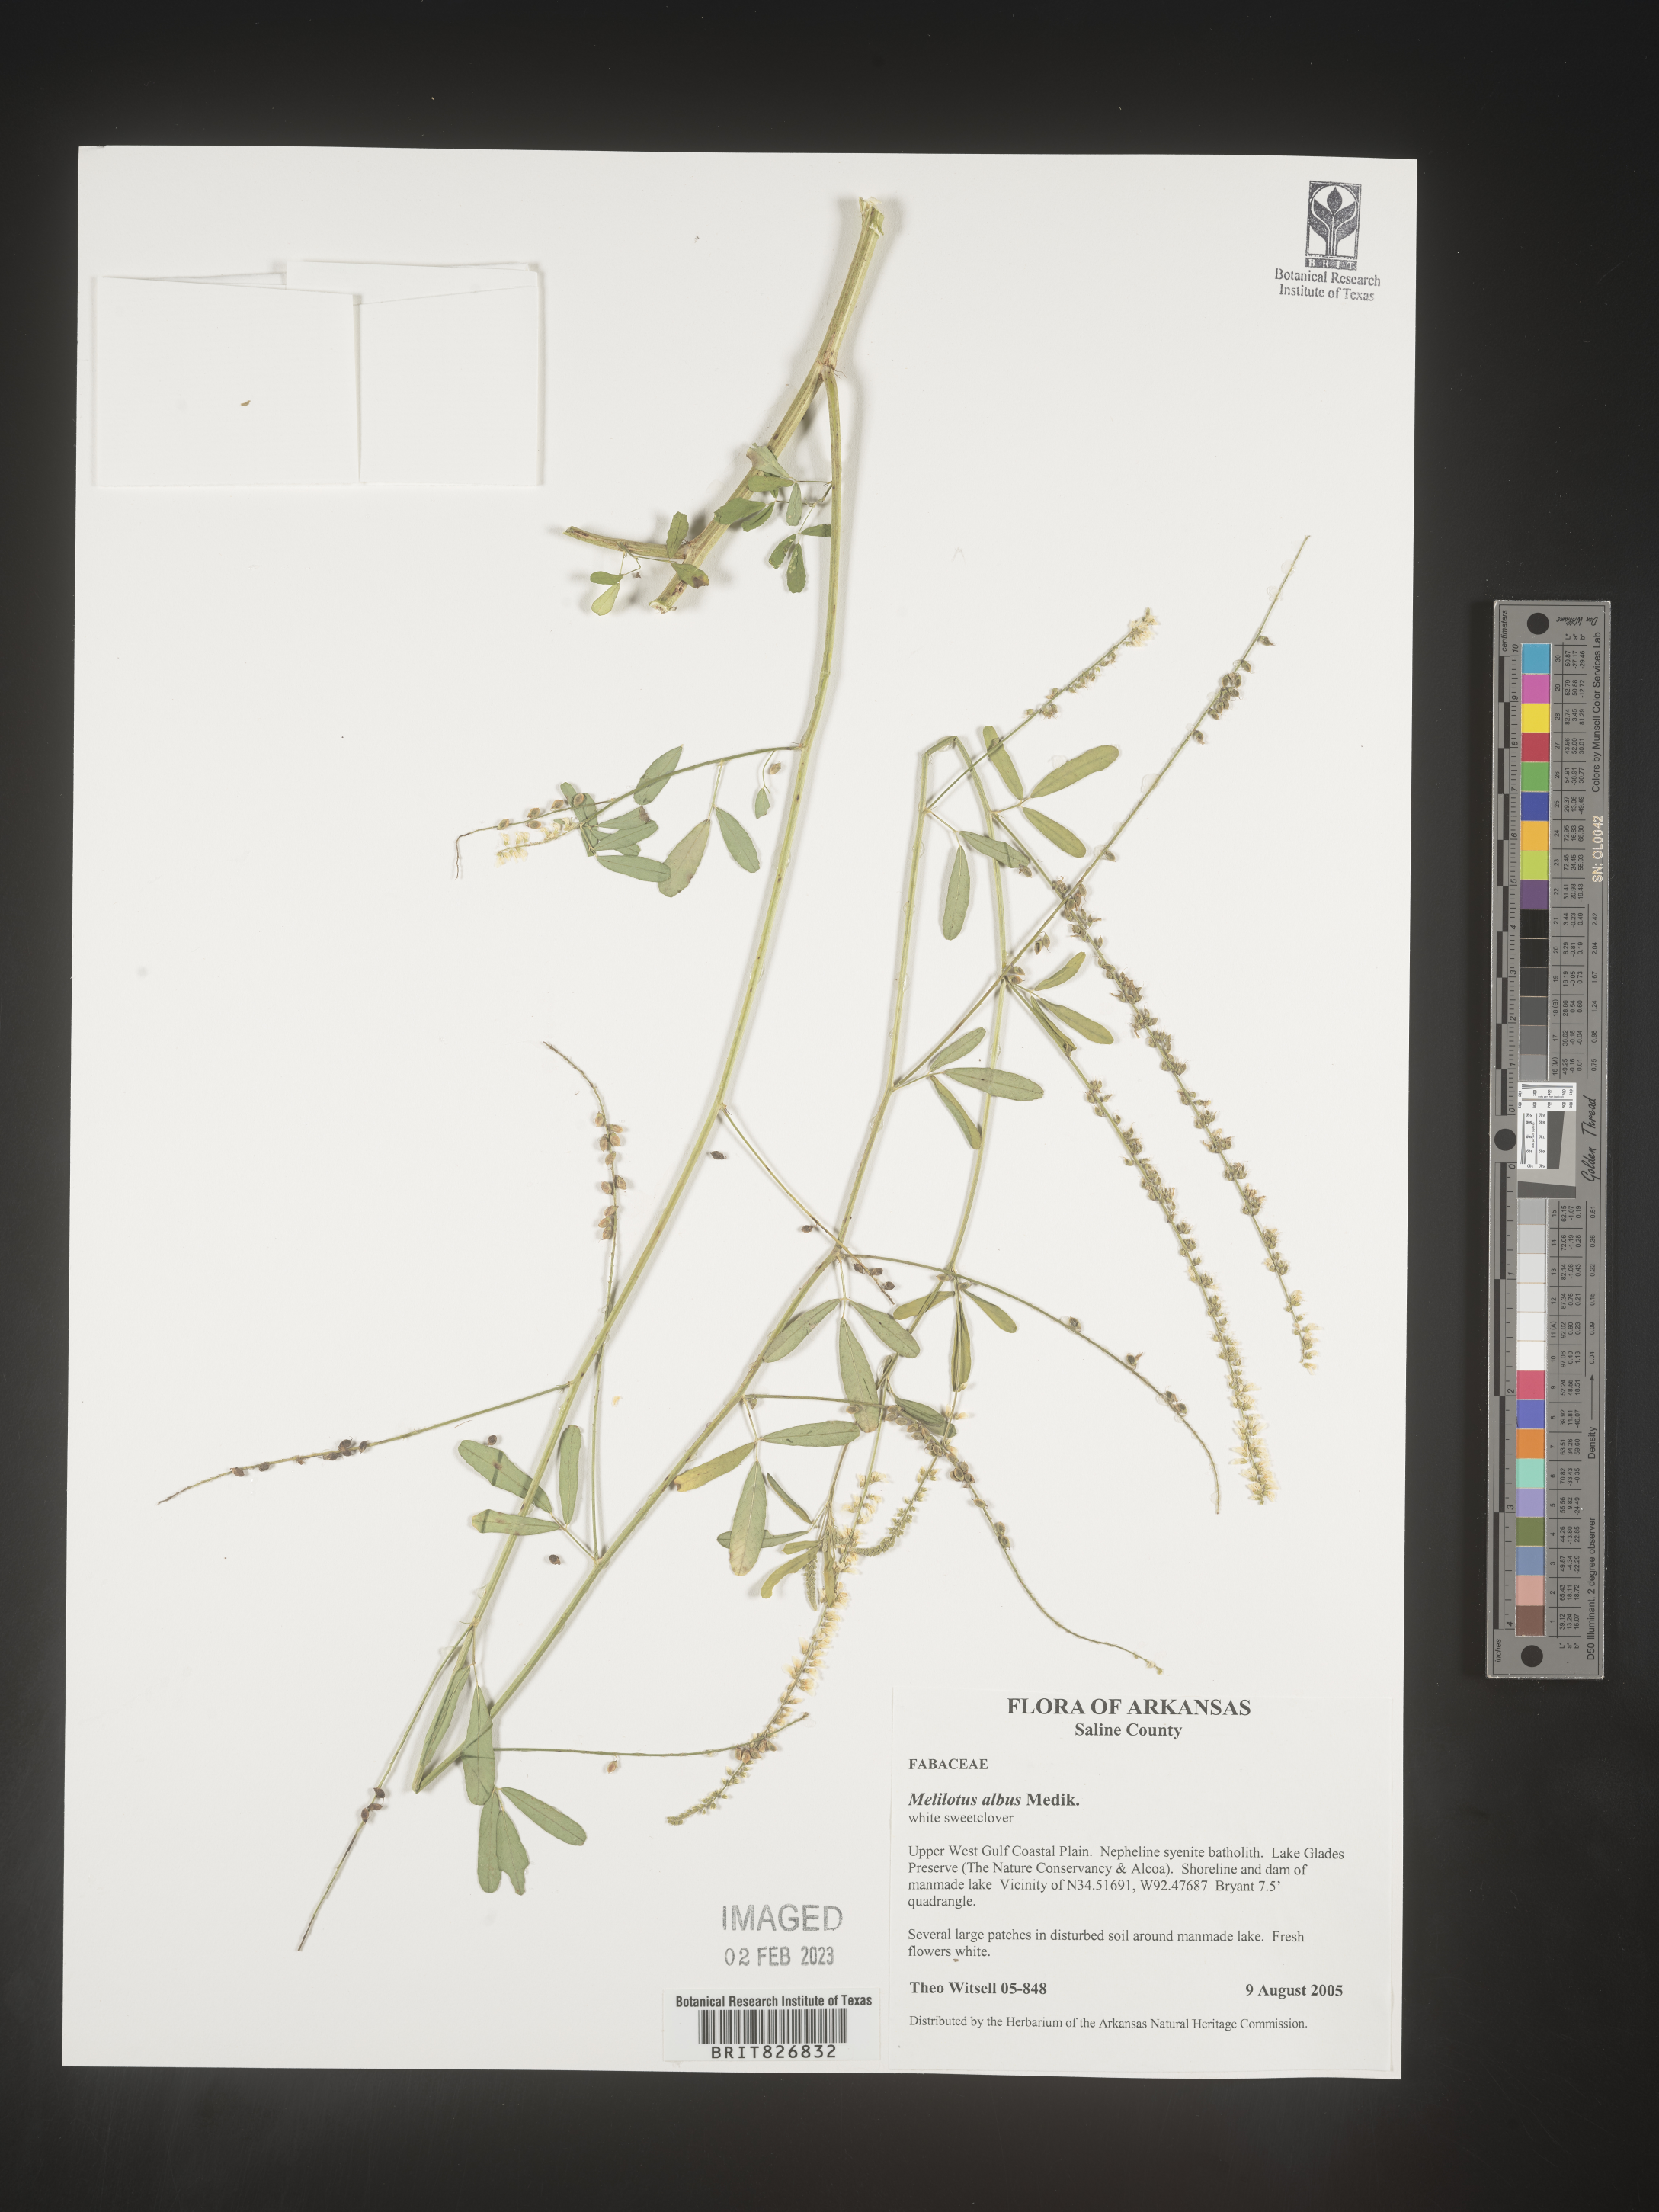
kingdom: Plantae
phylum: Tracheophyta
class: Magnoliopsida
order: Fabales
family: Fabaceae
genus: Melilotus
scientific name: Melilotus albus
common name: White melilot
